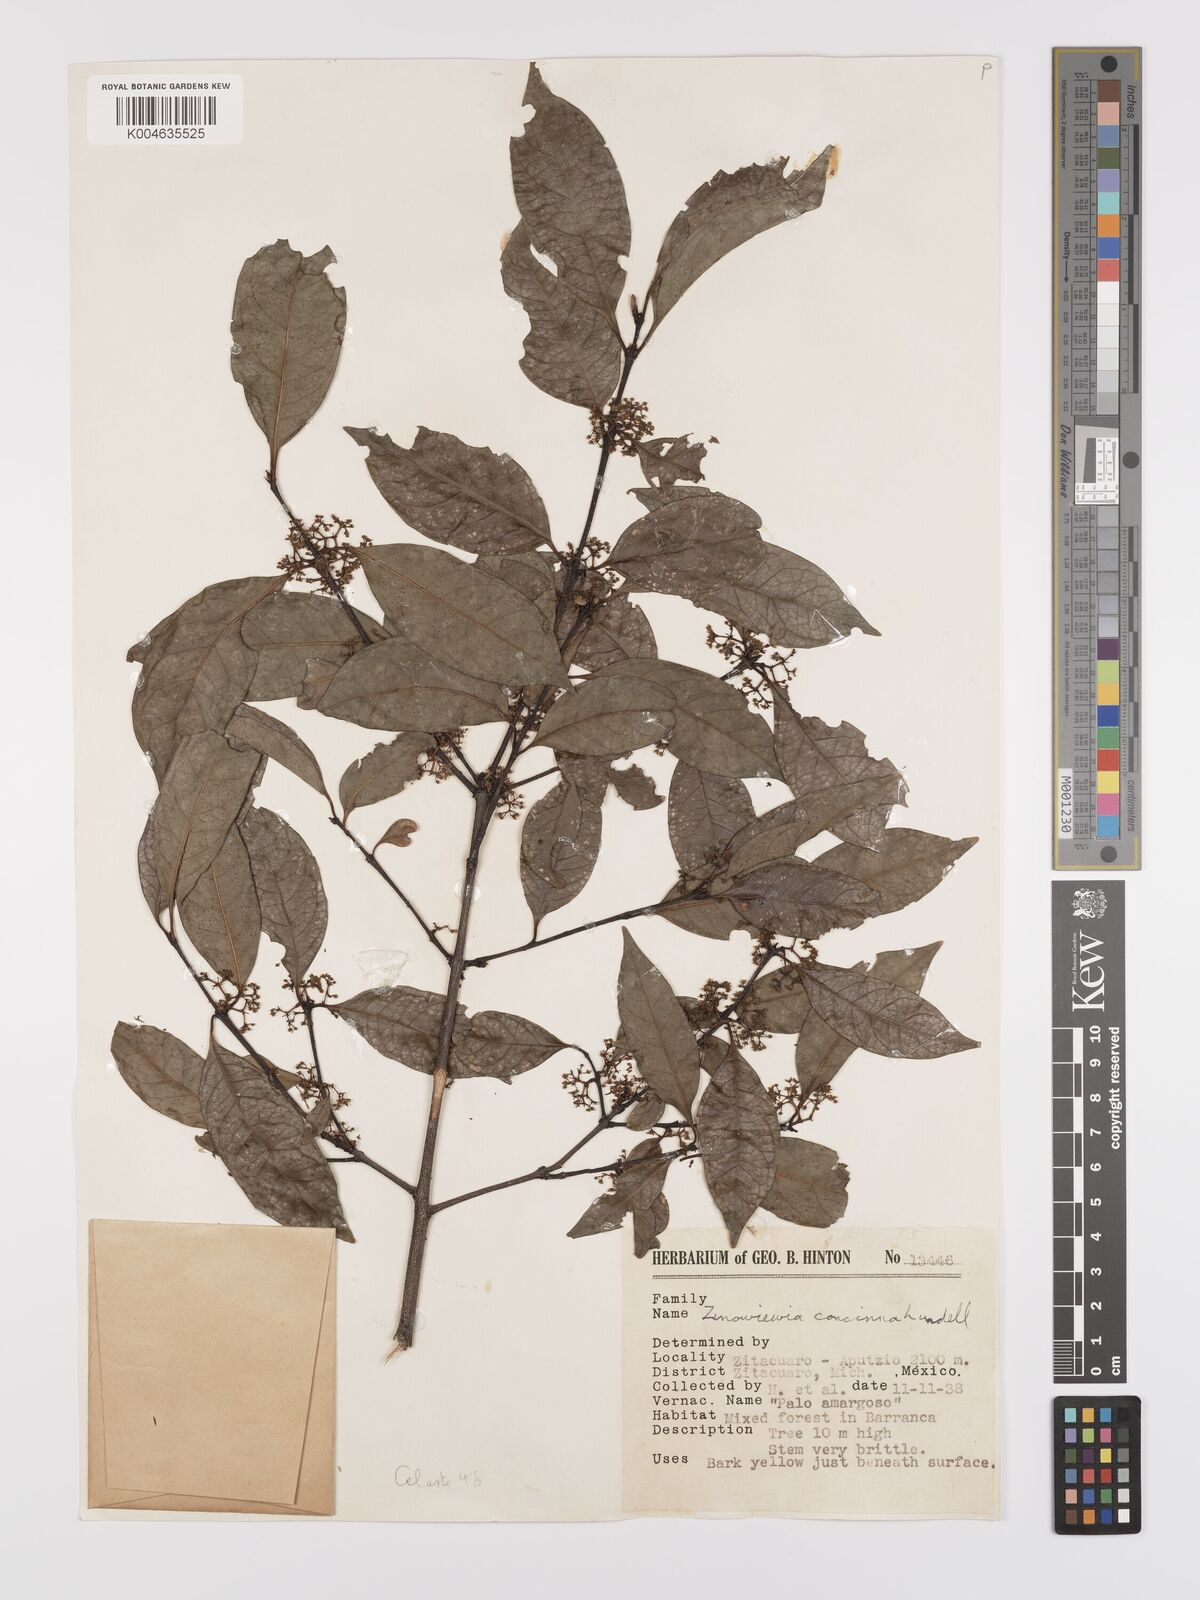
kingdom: Plantae
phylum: Tracheophyta
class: Magnoliopsida
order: Celastrales
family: Celastraceae
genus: Zinowiewia
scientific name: Zinowiewia concinna
